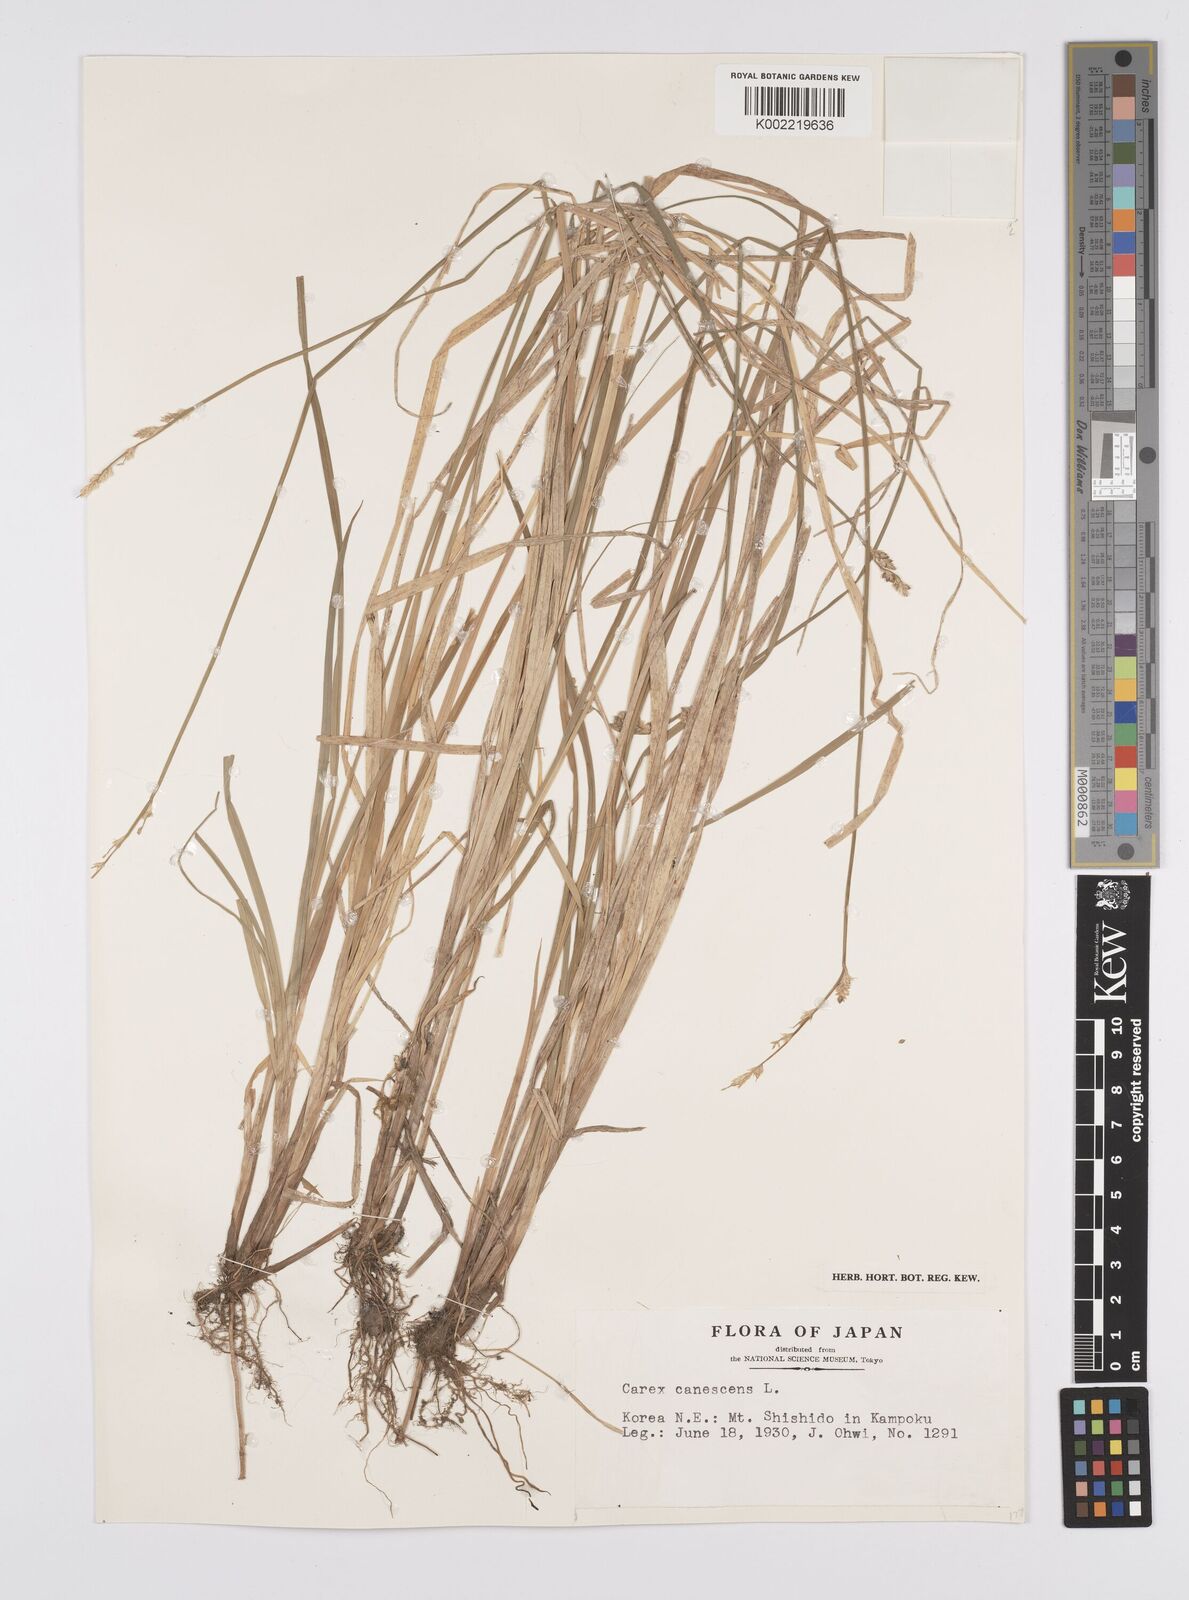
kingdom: Plantae
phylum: Tracheophyta
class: Liliopsida
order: Poales
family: Cyperaceae
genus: Carex
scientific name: Carex canescens
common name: White sedge
